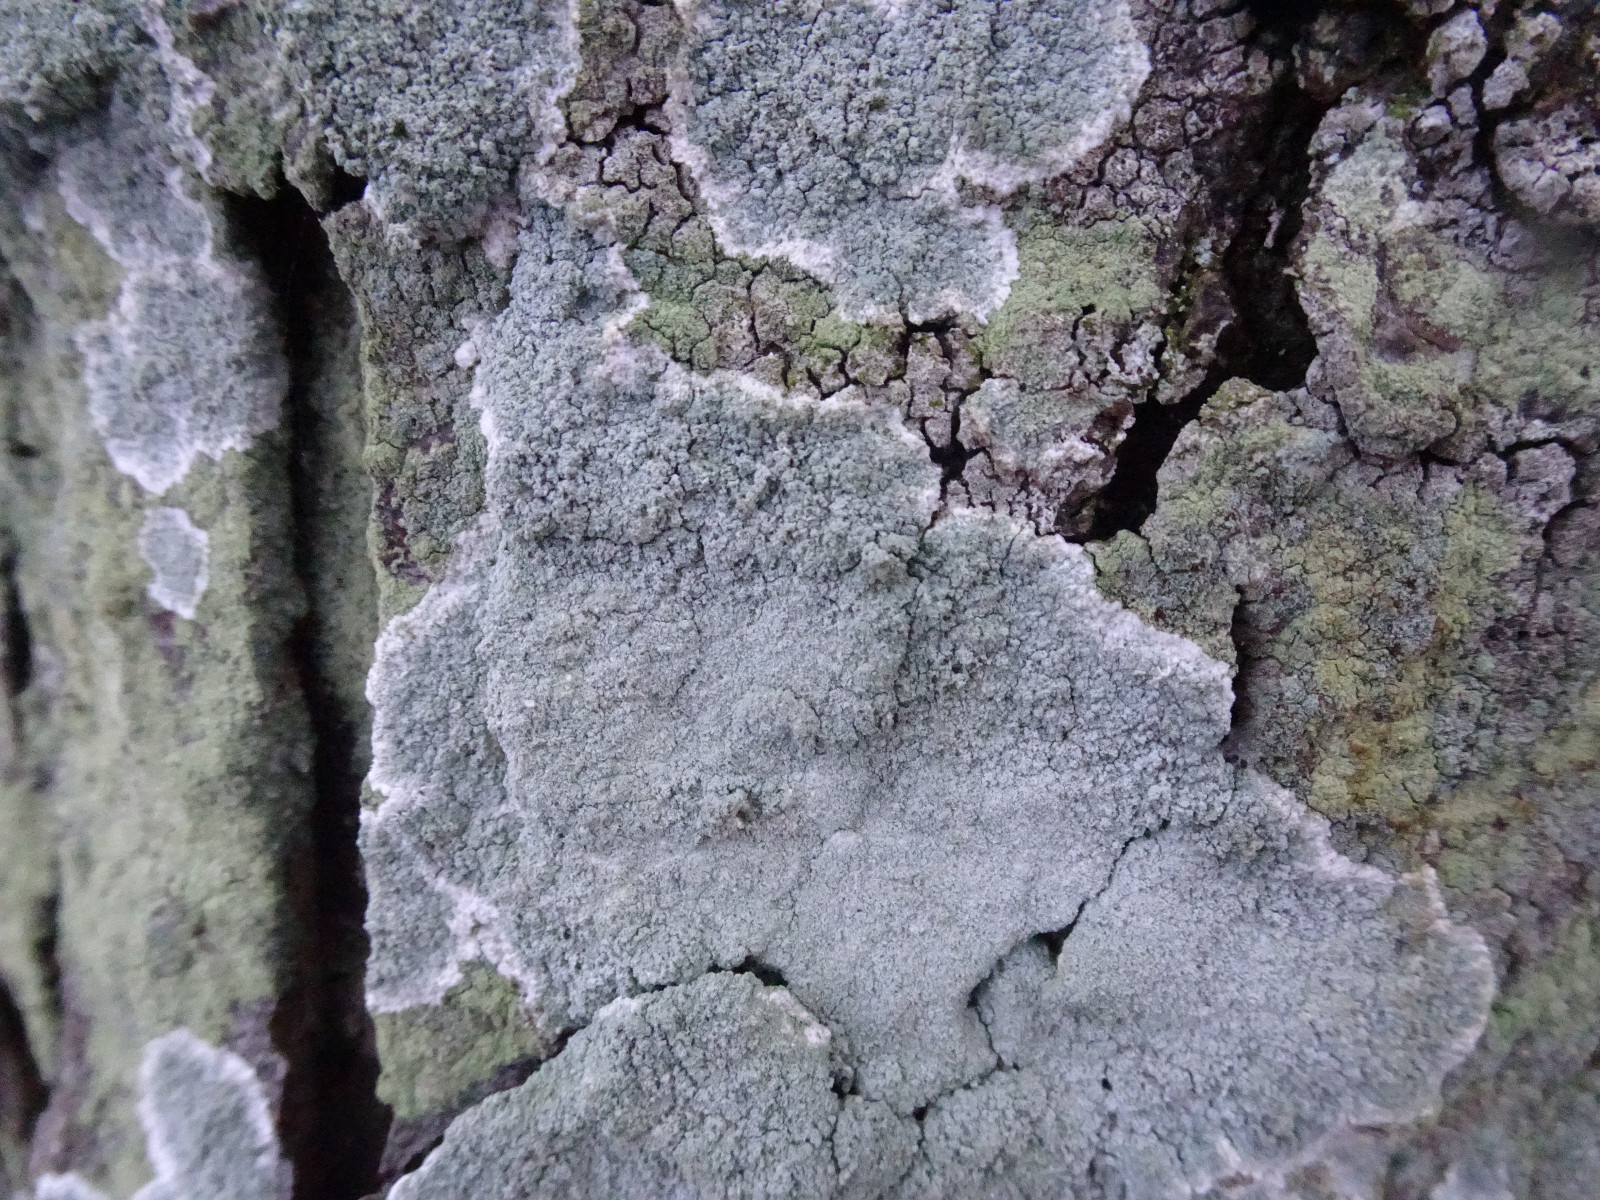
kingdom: Fungi
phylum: Ascomycota
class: Lecanoromycetes
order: Lecanorales
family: Haematommataceae
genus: Haematomma
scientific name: Haematomma ochroleucum
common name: gul trådkantlav
